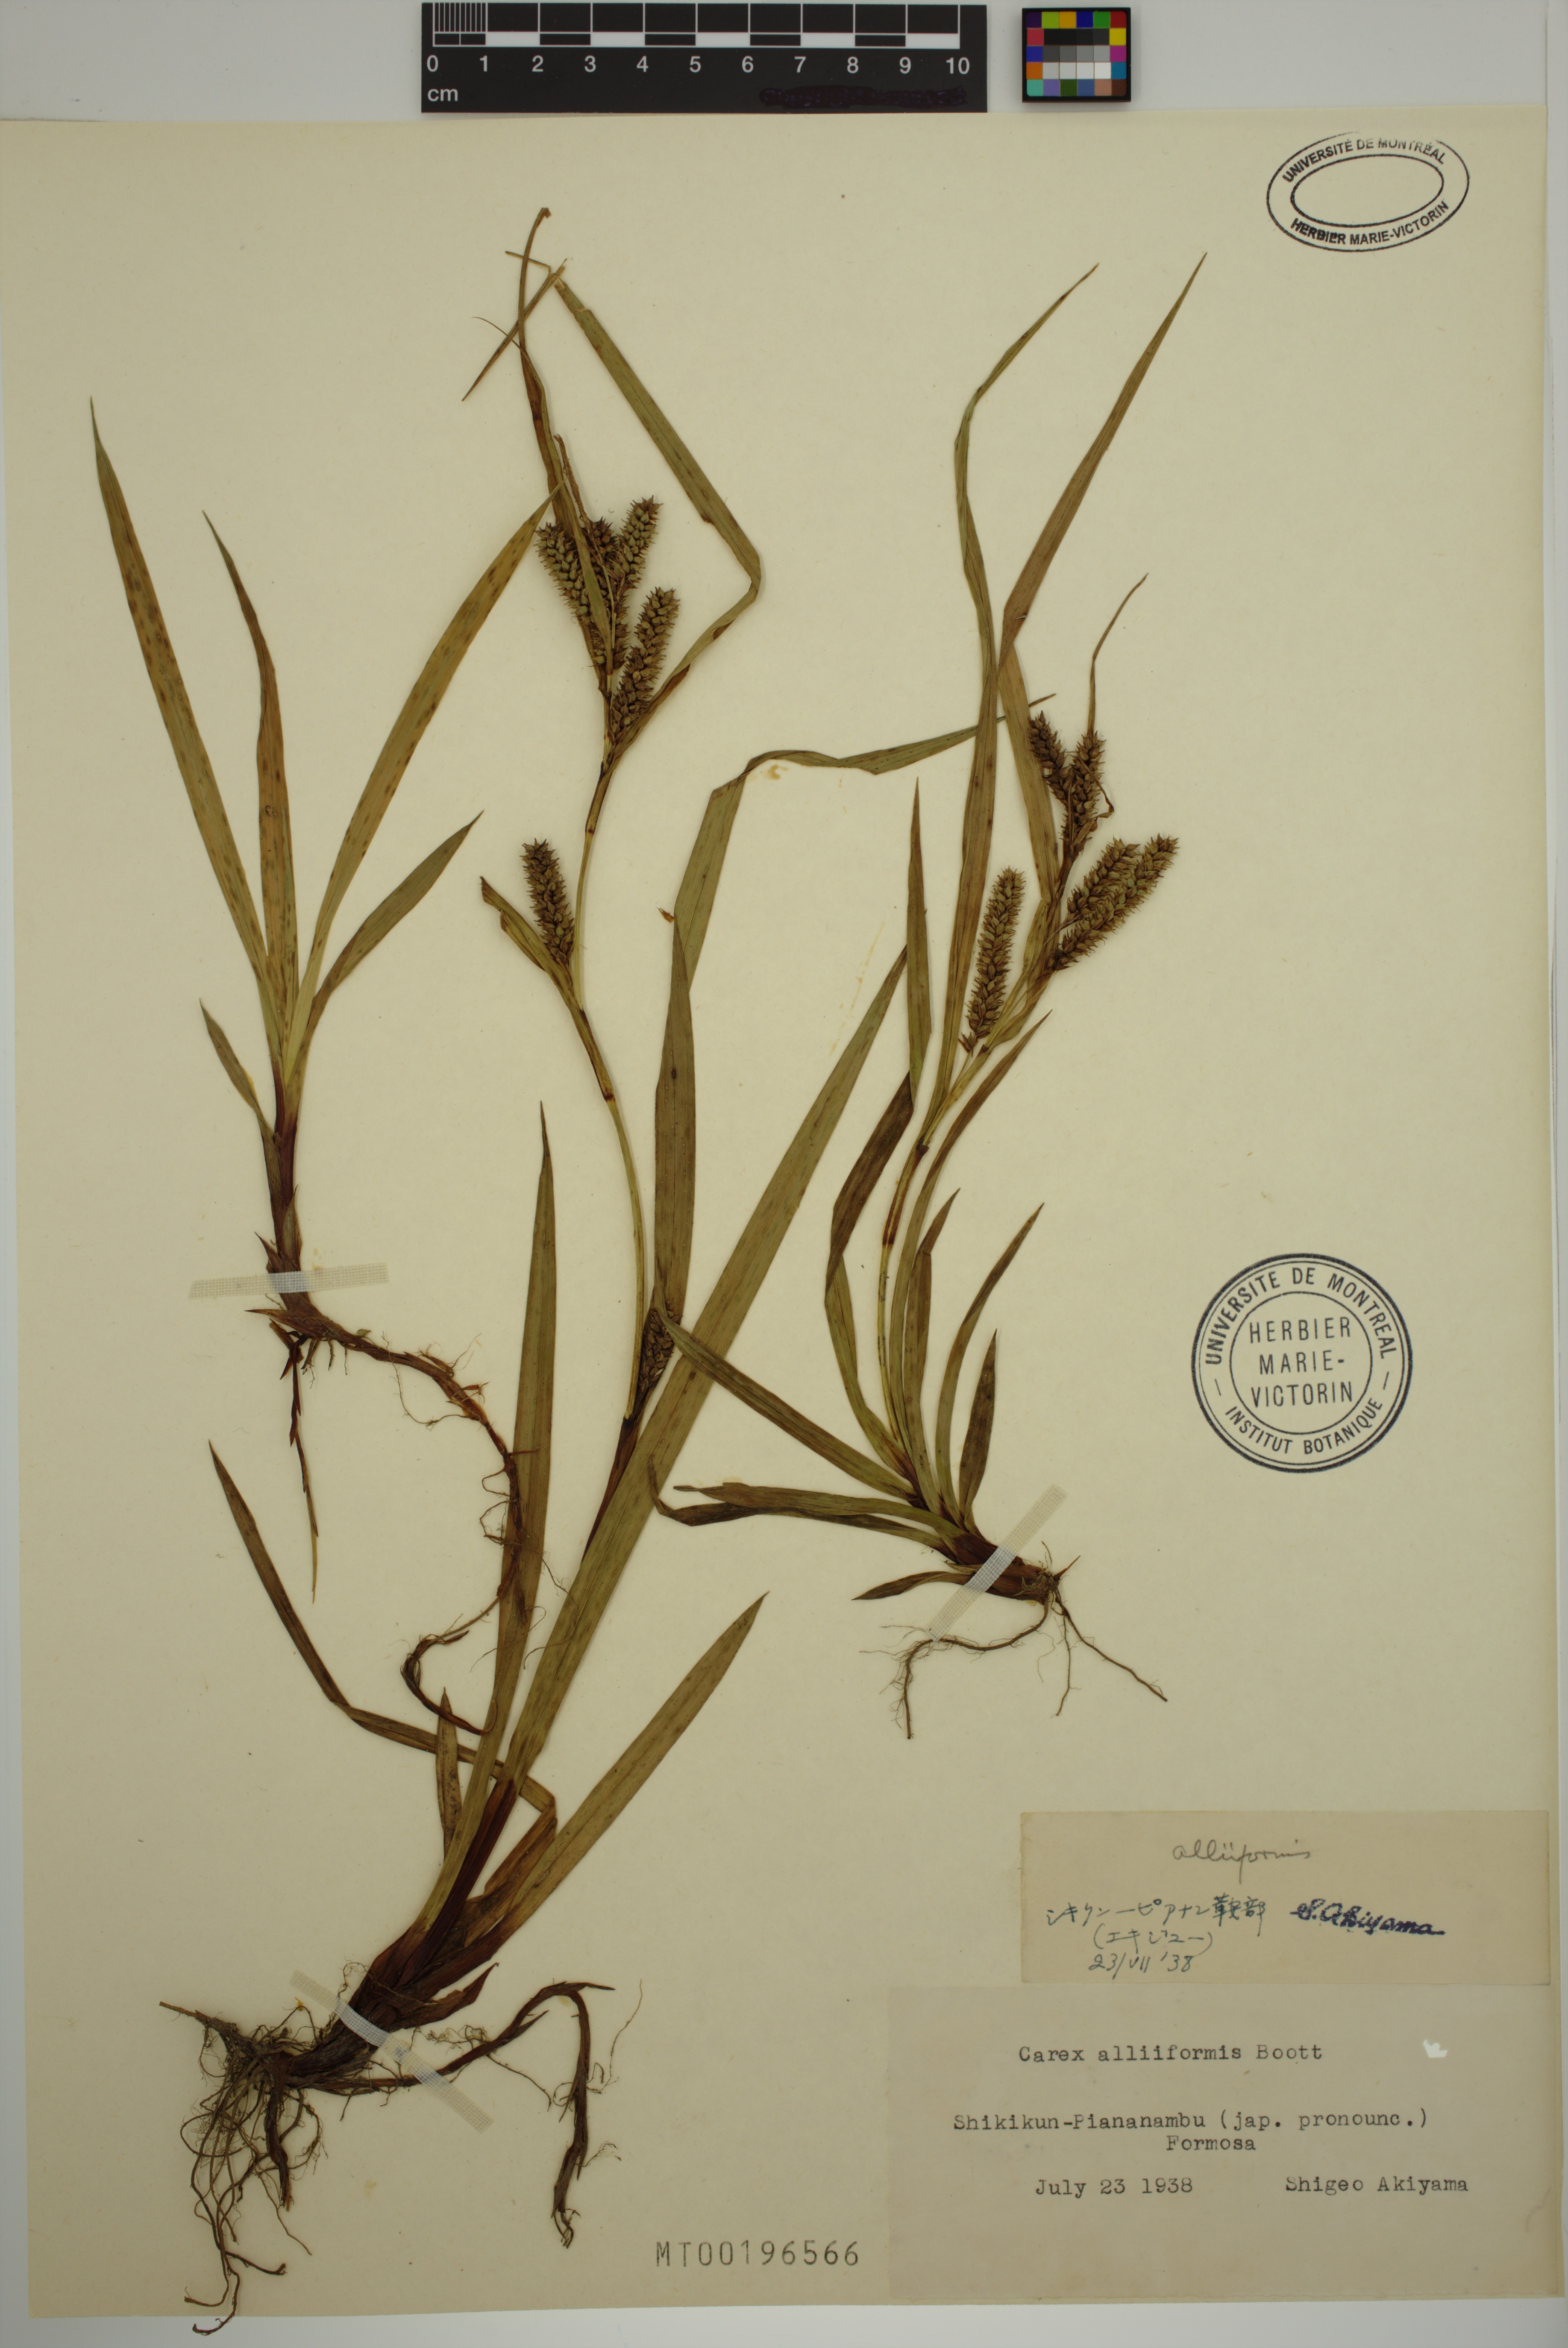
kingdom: Plantae
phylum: Tracheophyta
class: Liliopsida
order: Poales
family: Cyperaceae
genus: Carex
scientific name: Carex alliiformis
